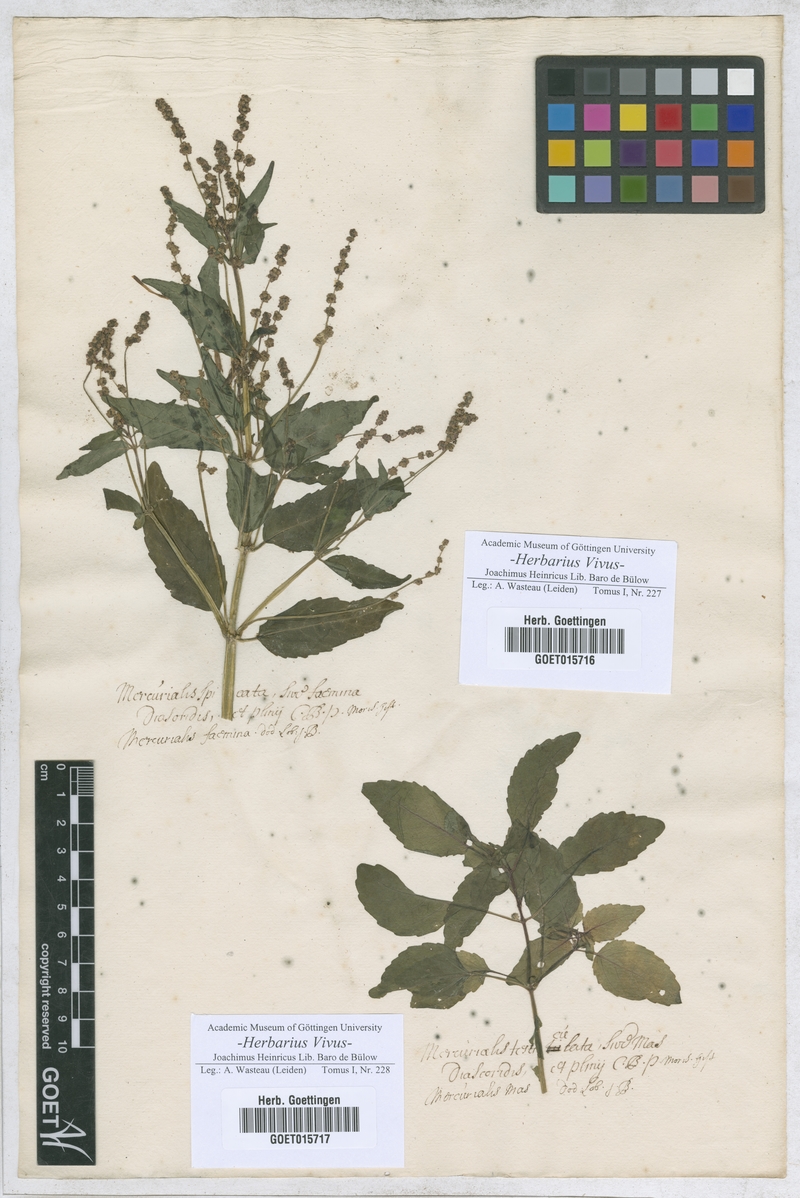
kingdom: Plantae
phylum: Tracheophyta
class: Magnoliopsida
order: Malpighiales
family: Euphorbiaceae
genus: Mercurialis
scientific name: Mercurialis
